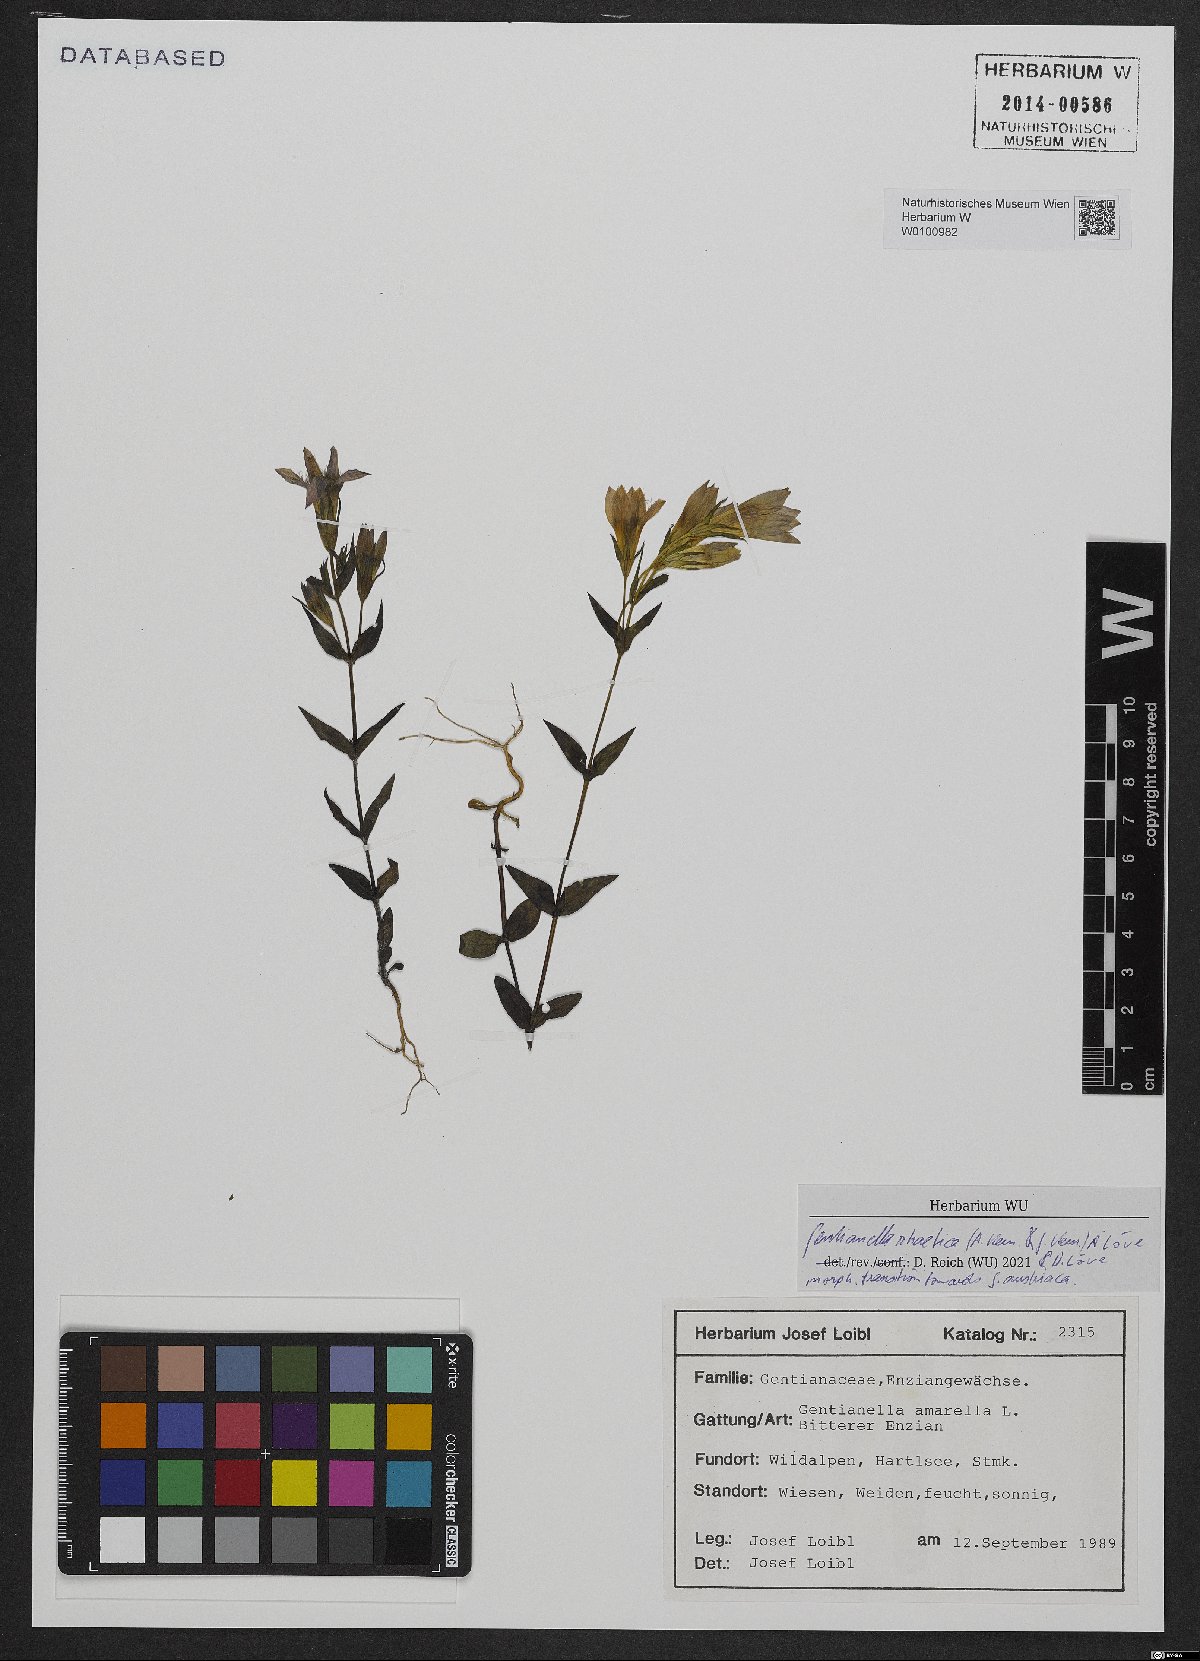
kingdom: Plantae
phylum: Tracheophyta
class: Magnoliopsida
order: Gentianales
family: Gentianaceae
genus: Gentianella
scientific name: Gentianella rhaetica
